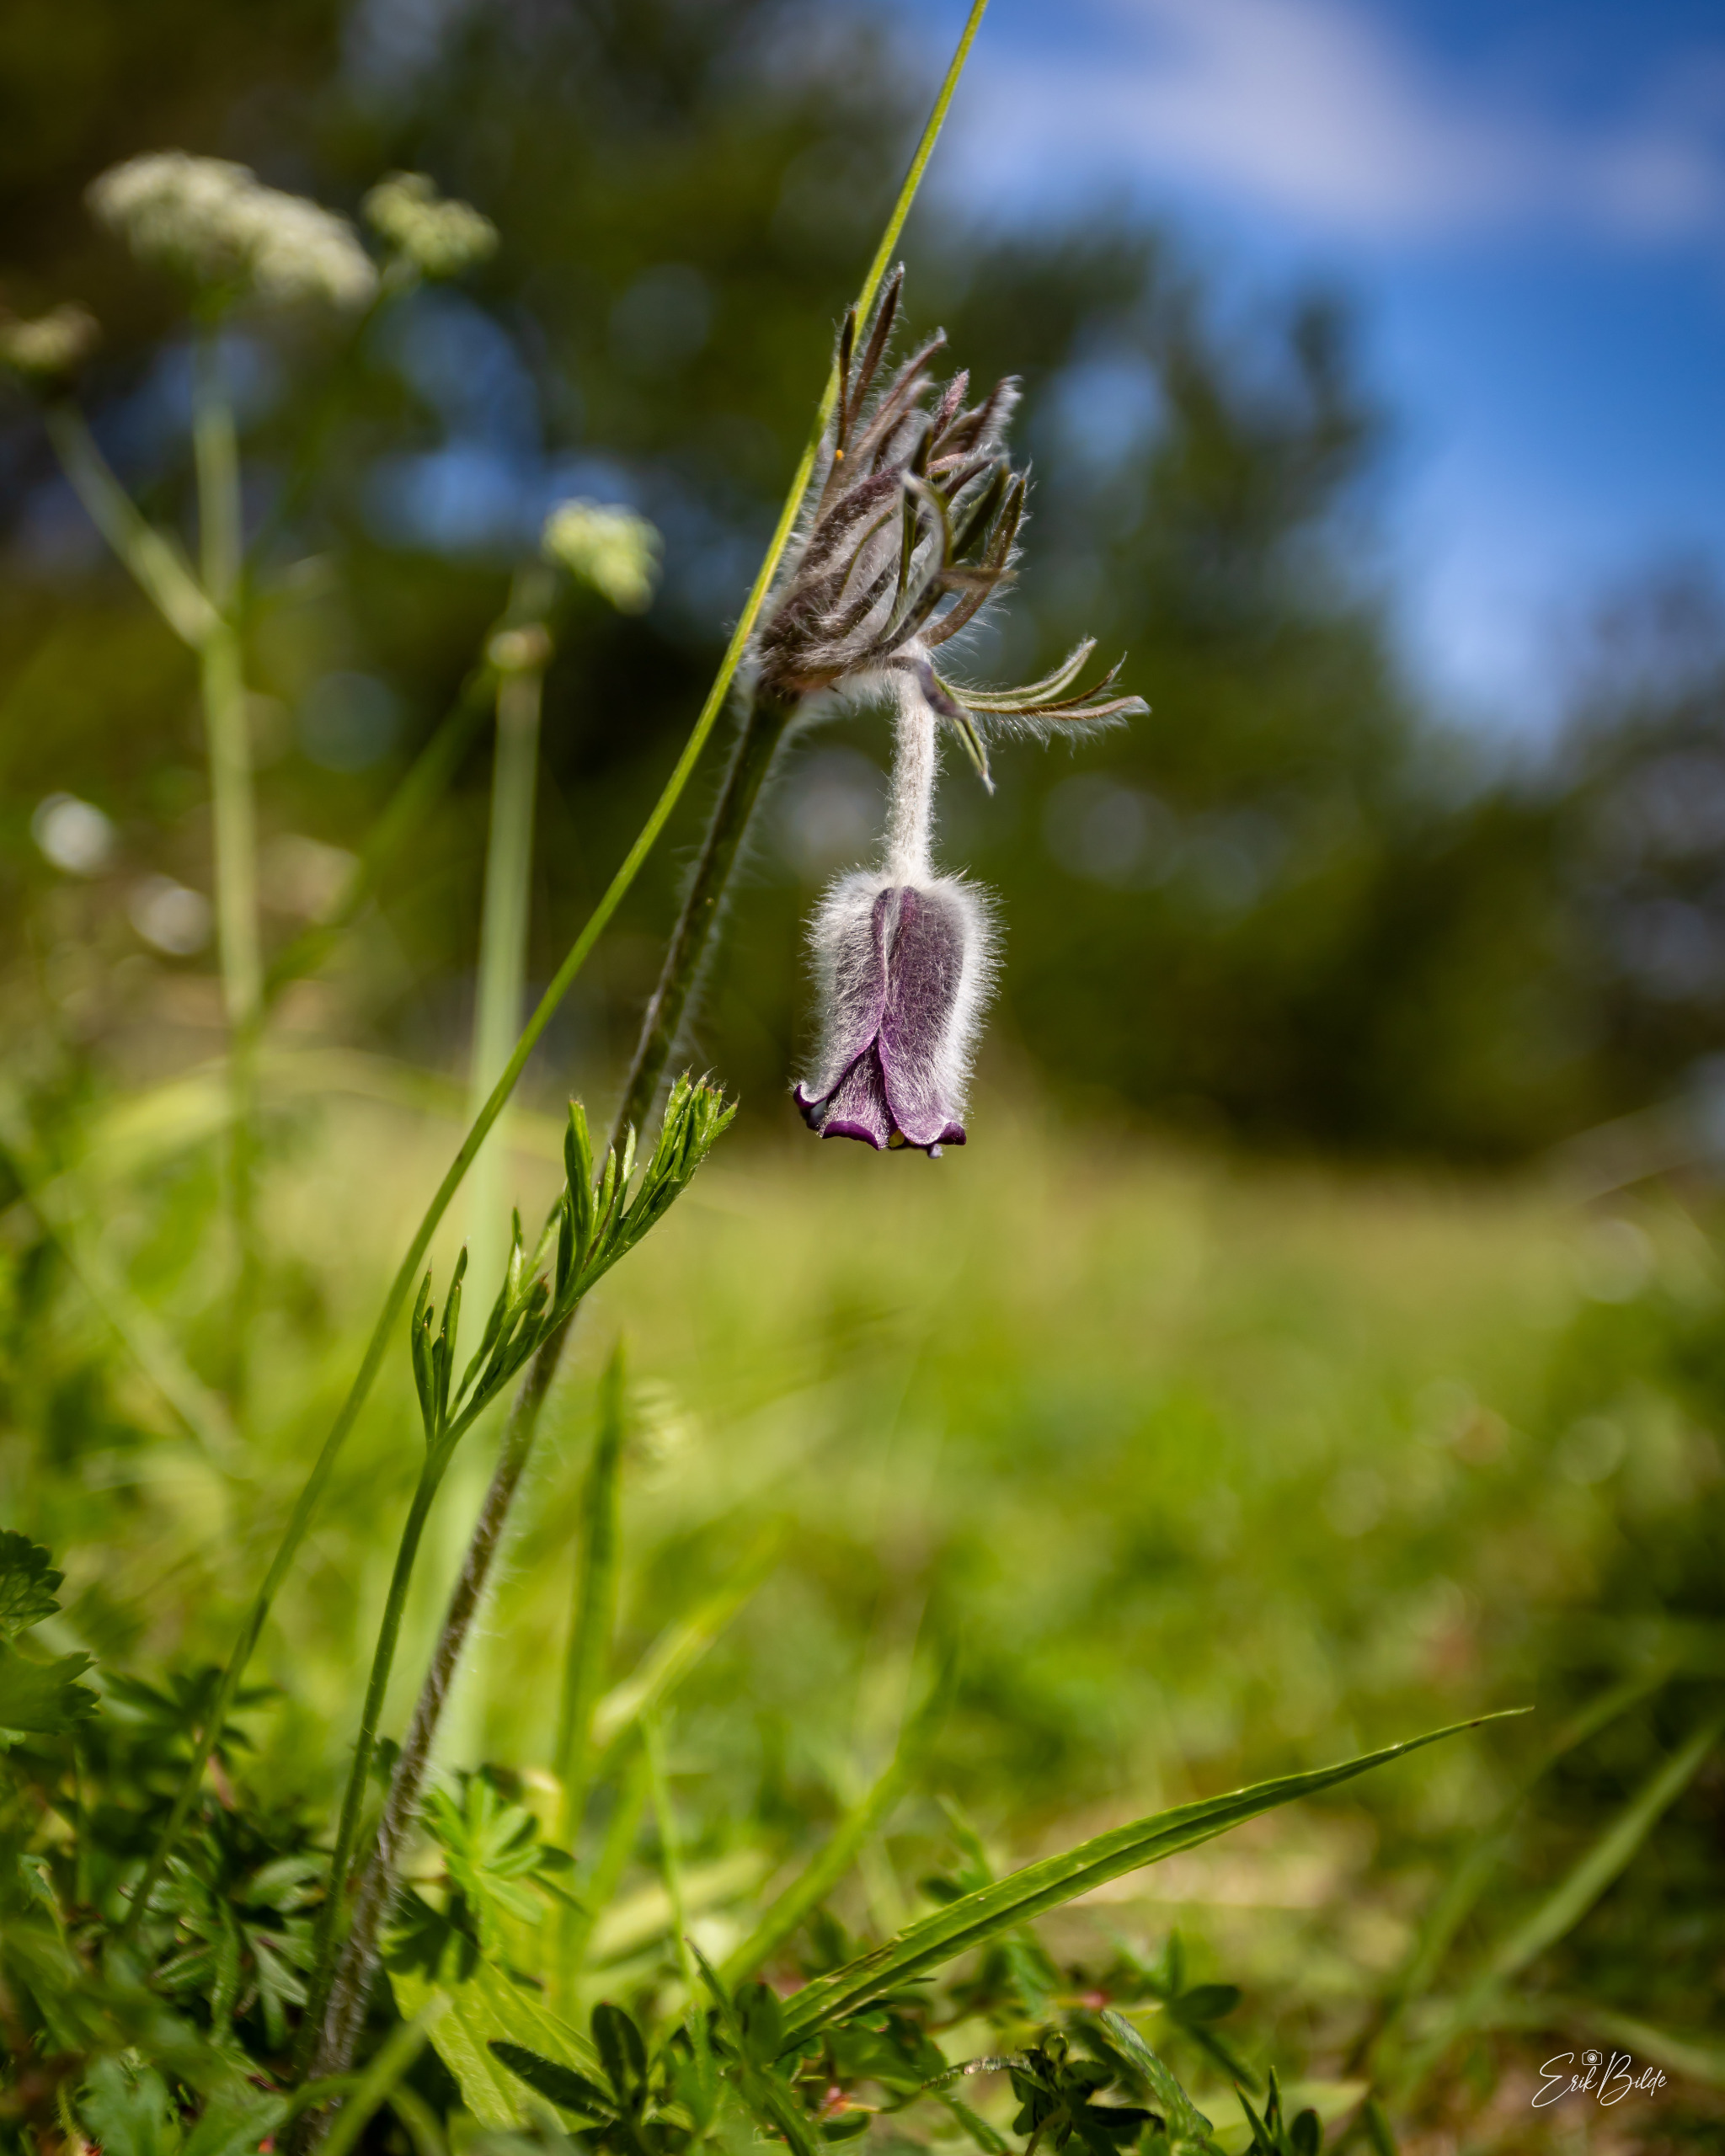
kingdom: Plantae
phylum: Tracheophyta
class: Magnoliopsida
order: Ranunculales
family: Ranunculaceae
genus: Pulsatilla
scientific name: Pulsatilla pratensis
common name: Nikkende kobjælde
